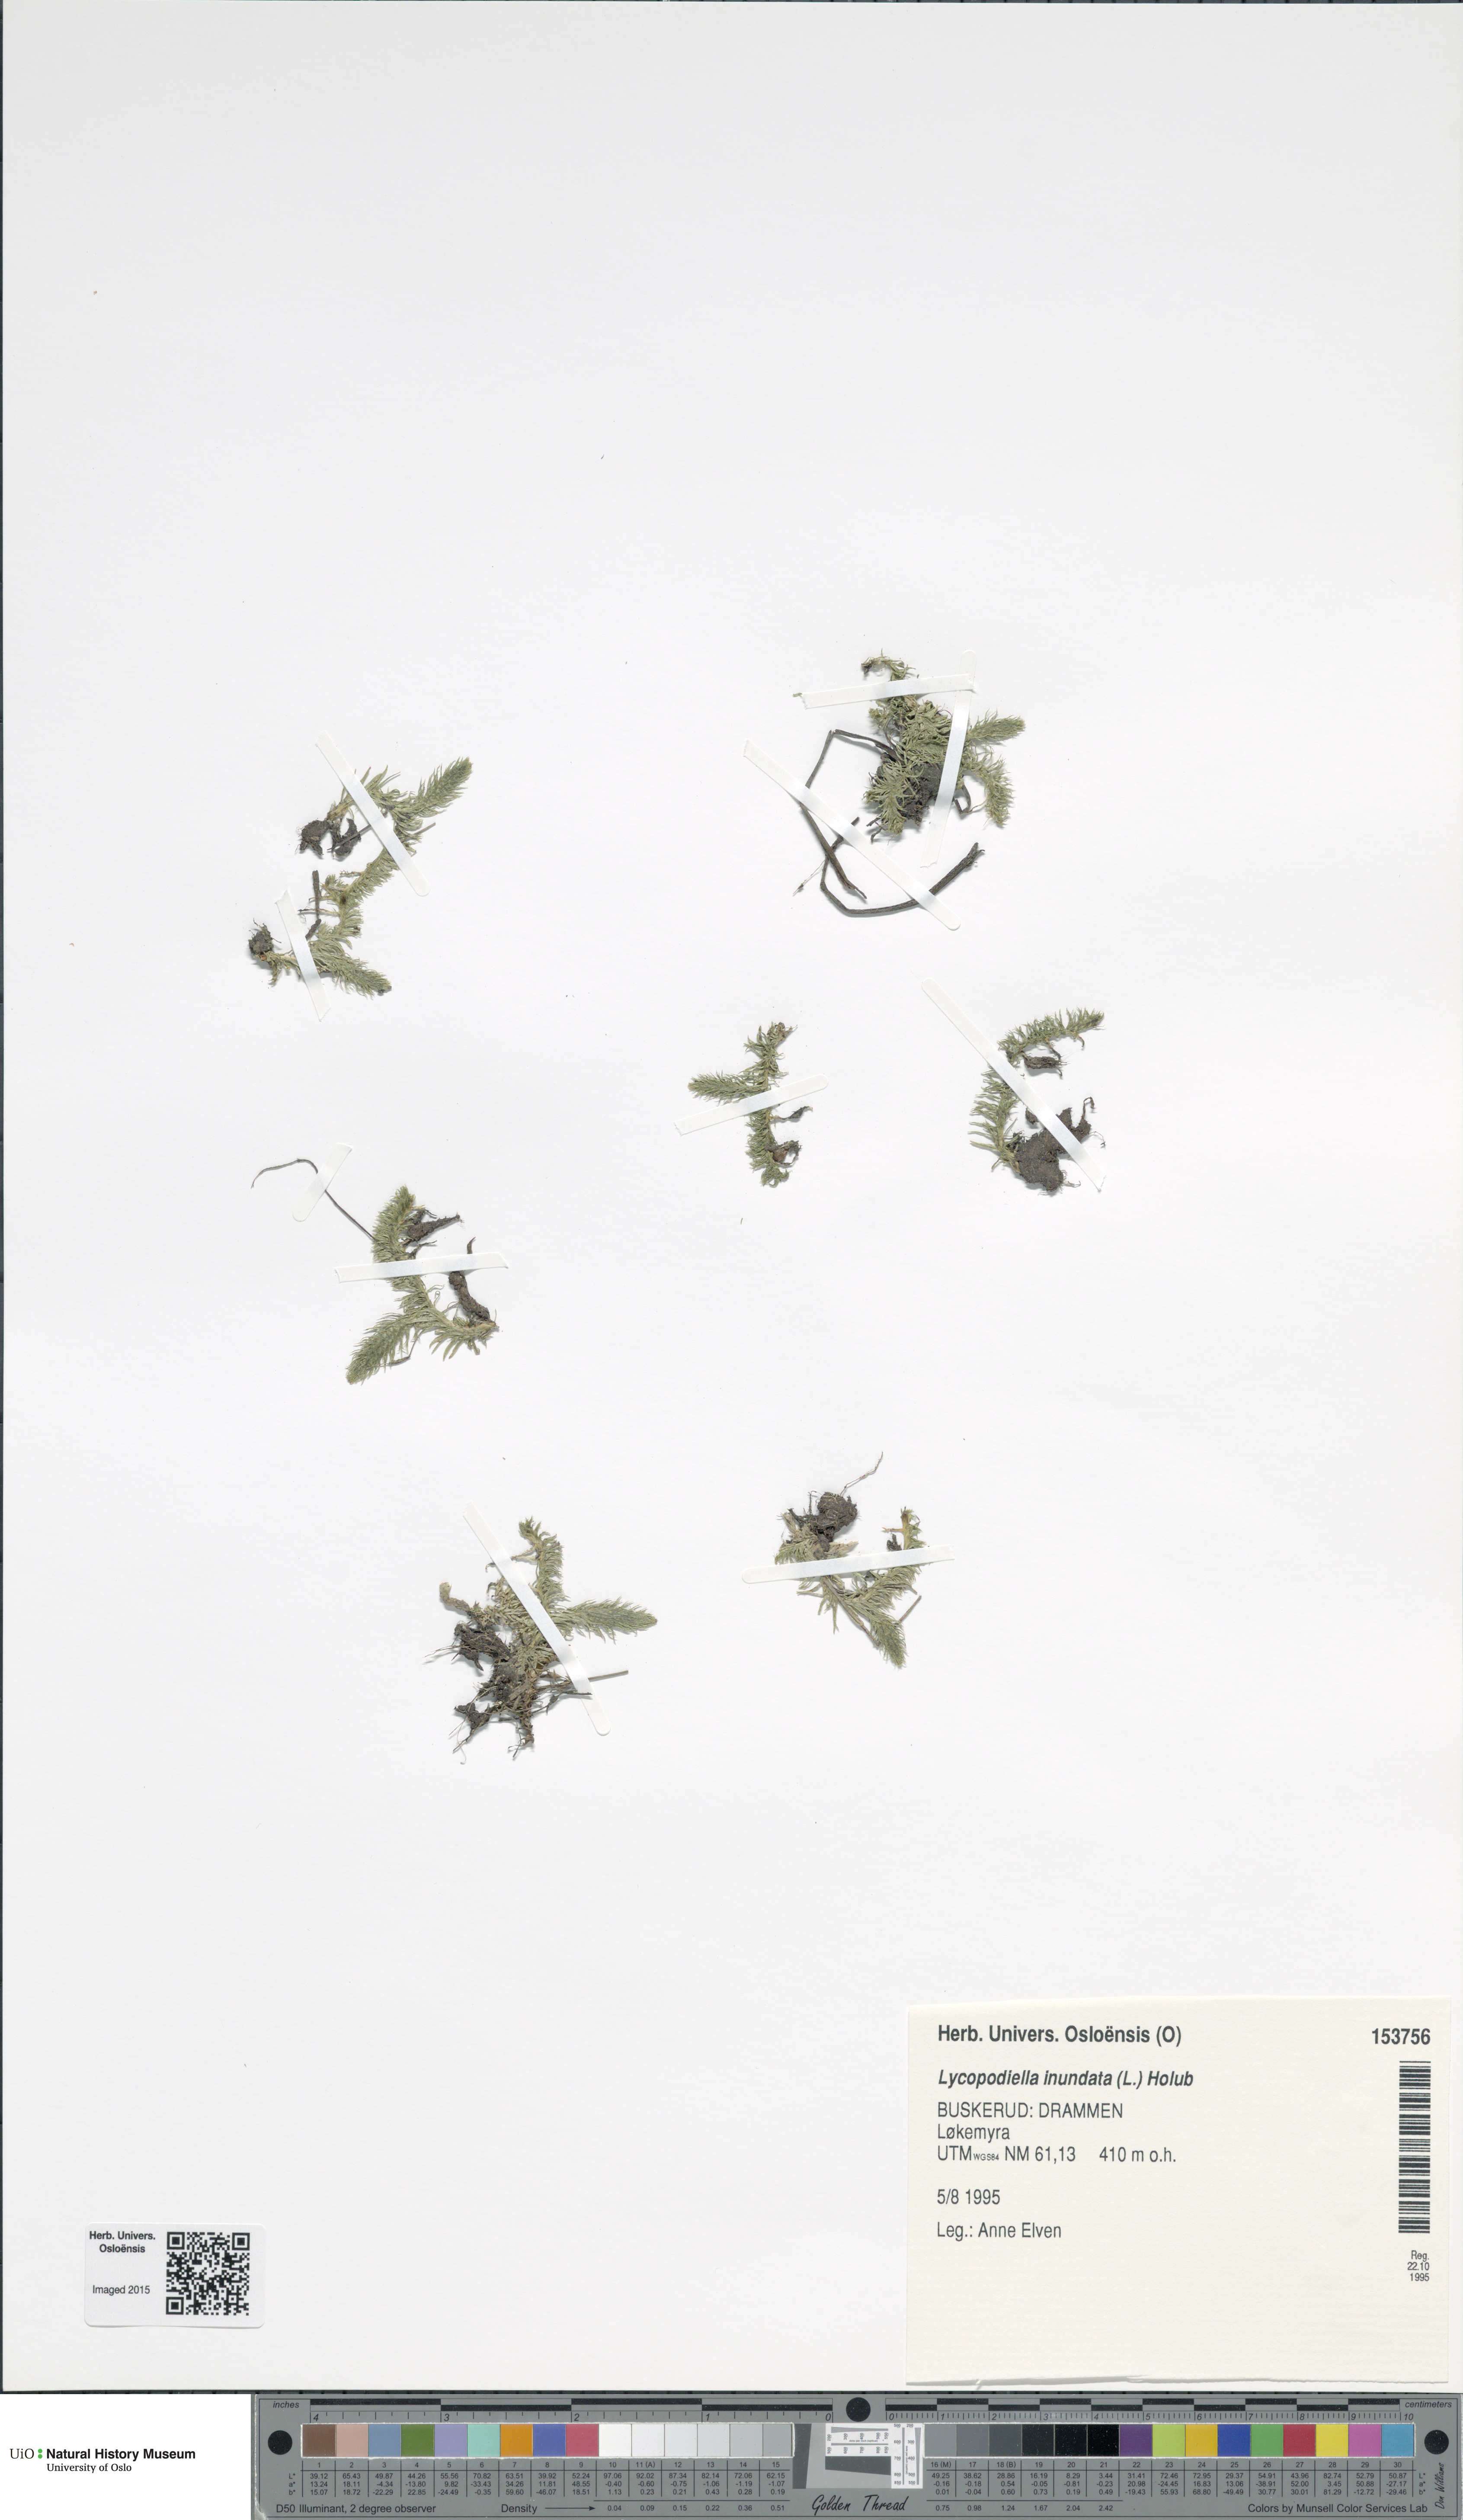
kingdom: Plantae
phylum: Tracheophyta
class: Lycopodiopsida
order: Lycopodiales
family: Lycopodiaceae
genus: Lycopodiella
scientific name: Lycopodiella inundata
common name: Marsh clubmoss
